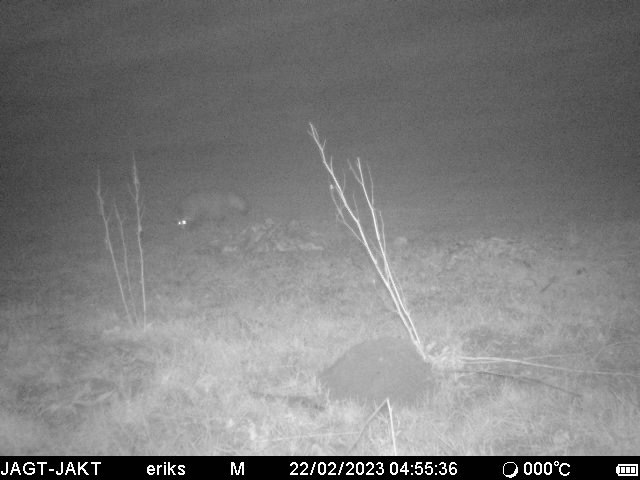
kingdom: Animalia
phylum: Chordata
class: Mammalia
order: Carnivora
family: Canidae
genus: Nyctereutes
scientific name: Nyctereutes procyonoides
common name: Mårhund
